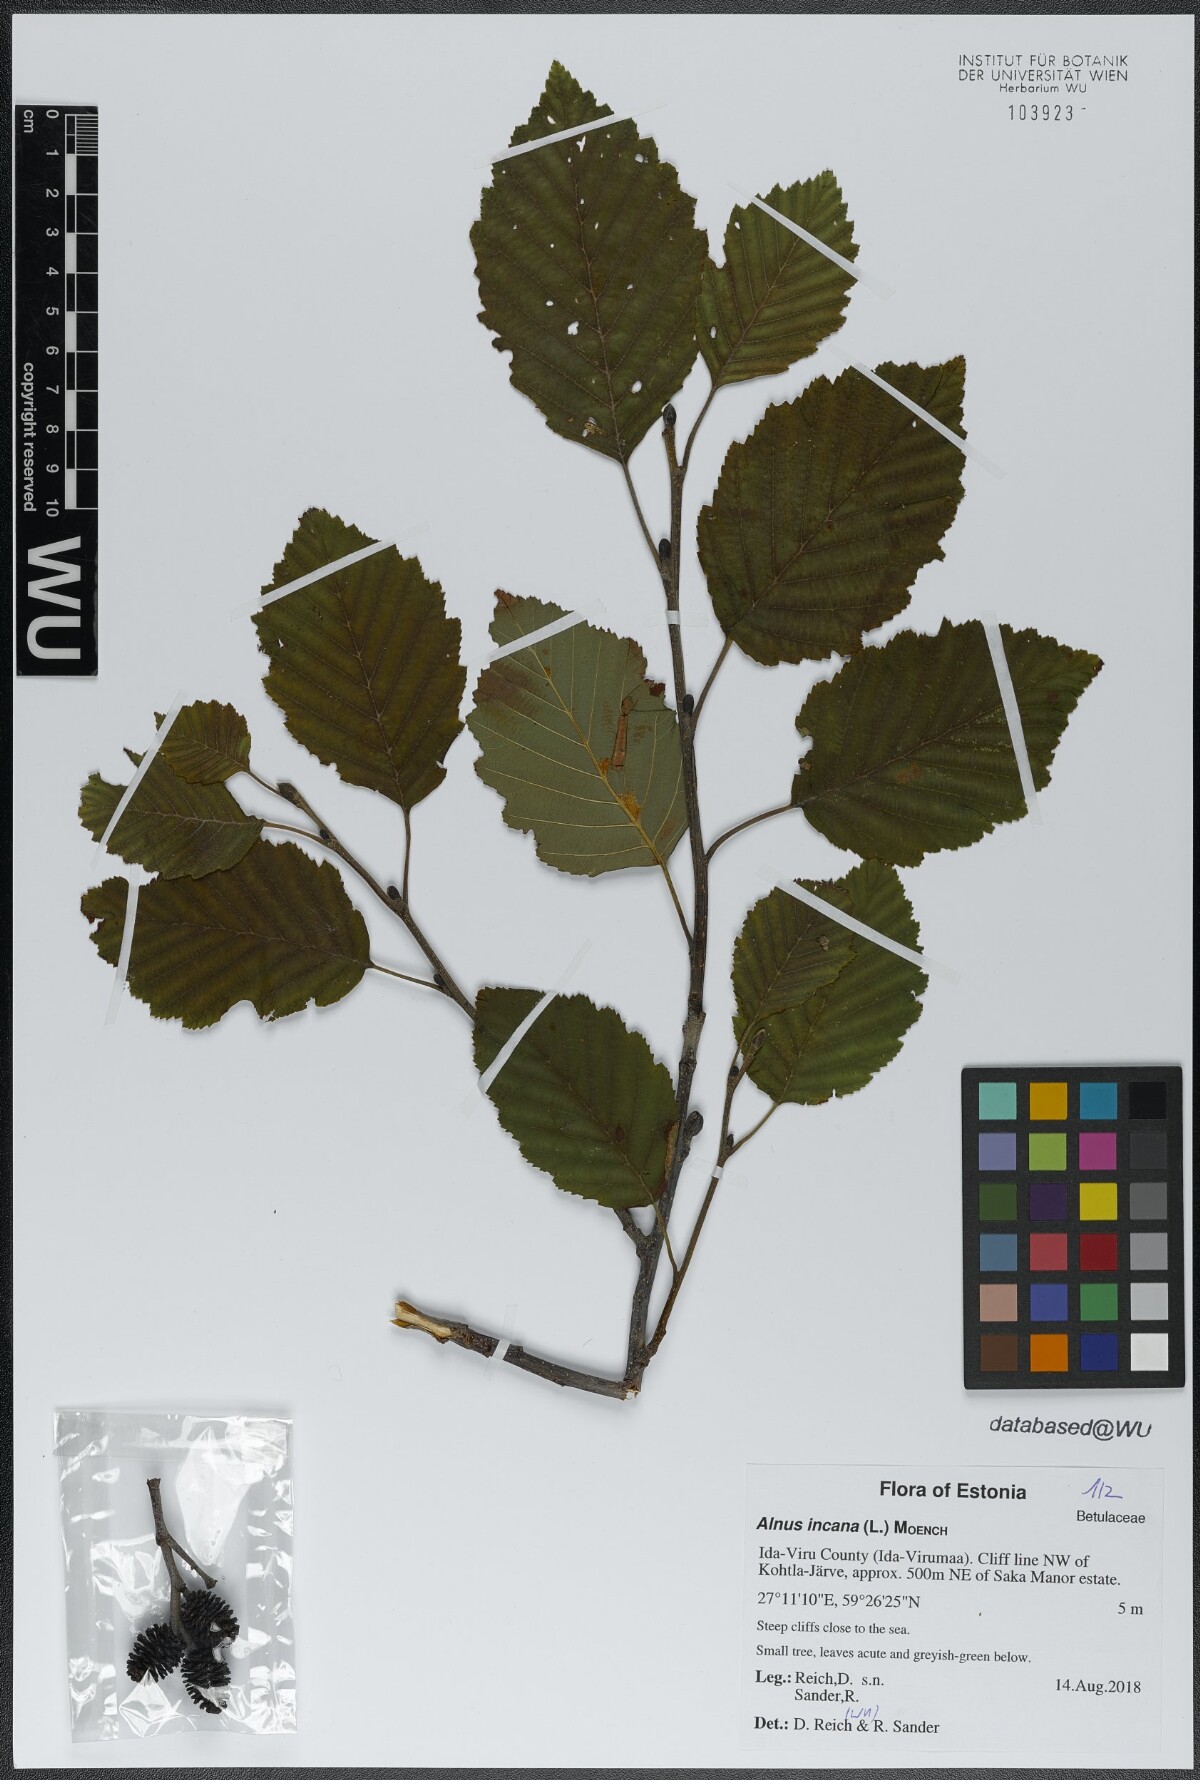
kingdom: Plantae
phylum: Tracheophyta
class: Magnoliopsida
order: Fagales
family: Betulaceae
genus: Alnus
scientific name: Alnus incana
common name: Grey alder
